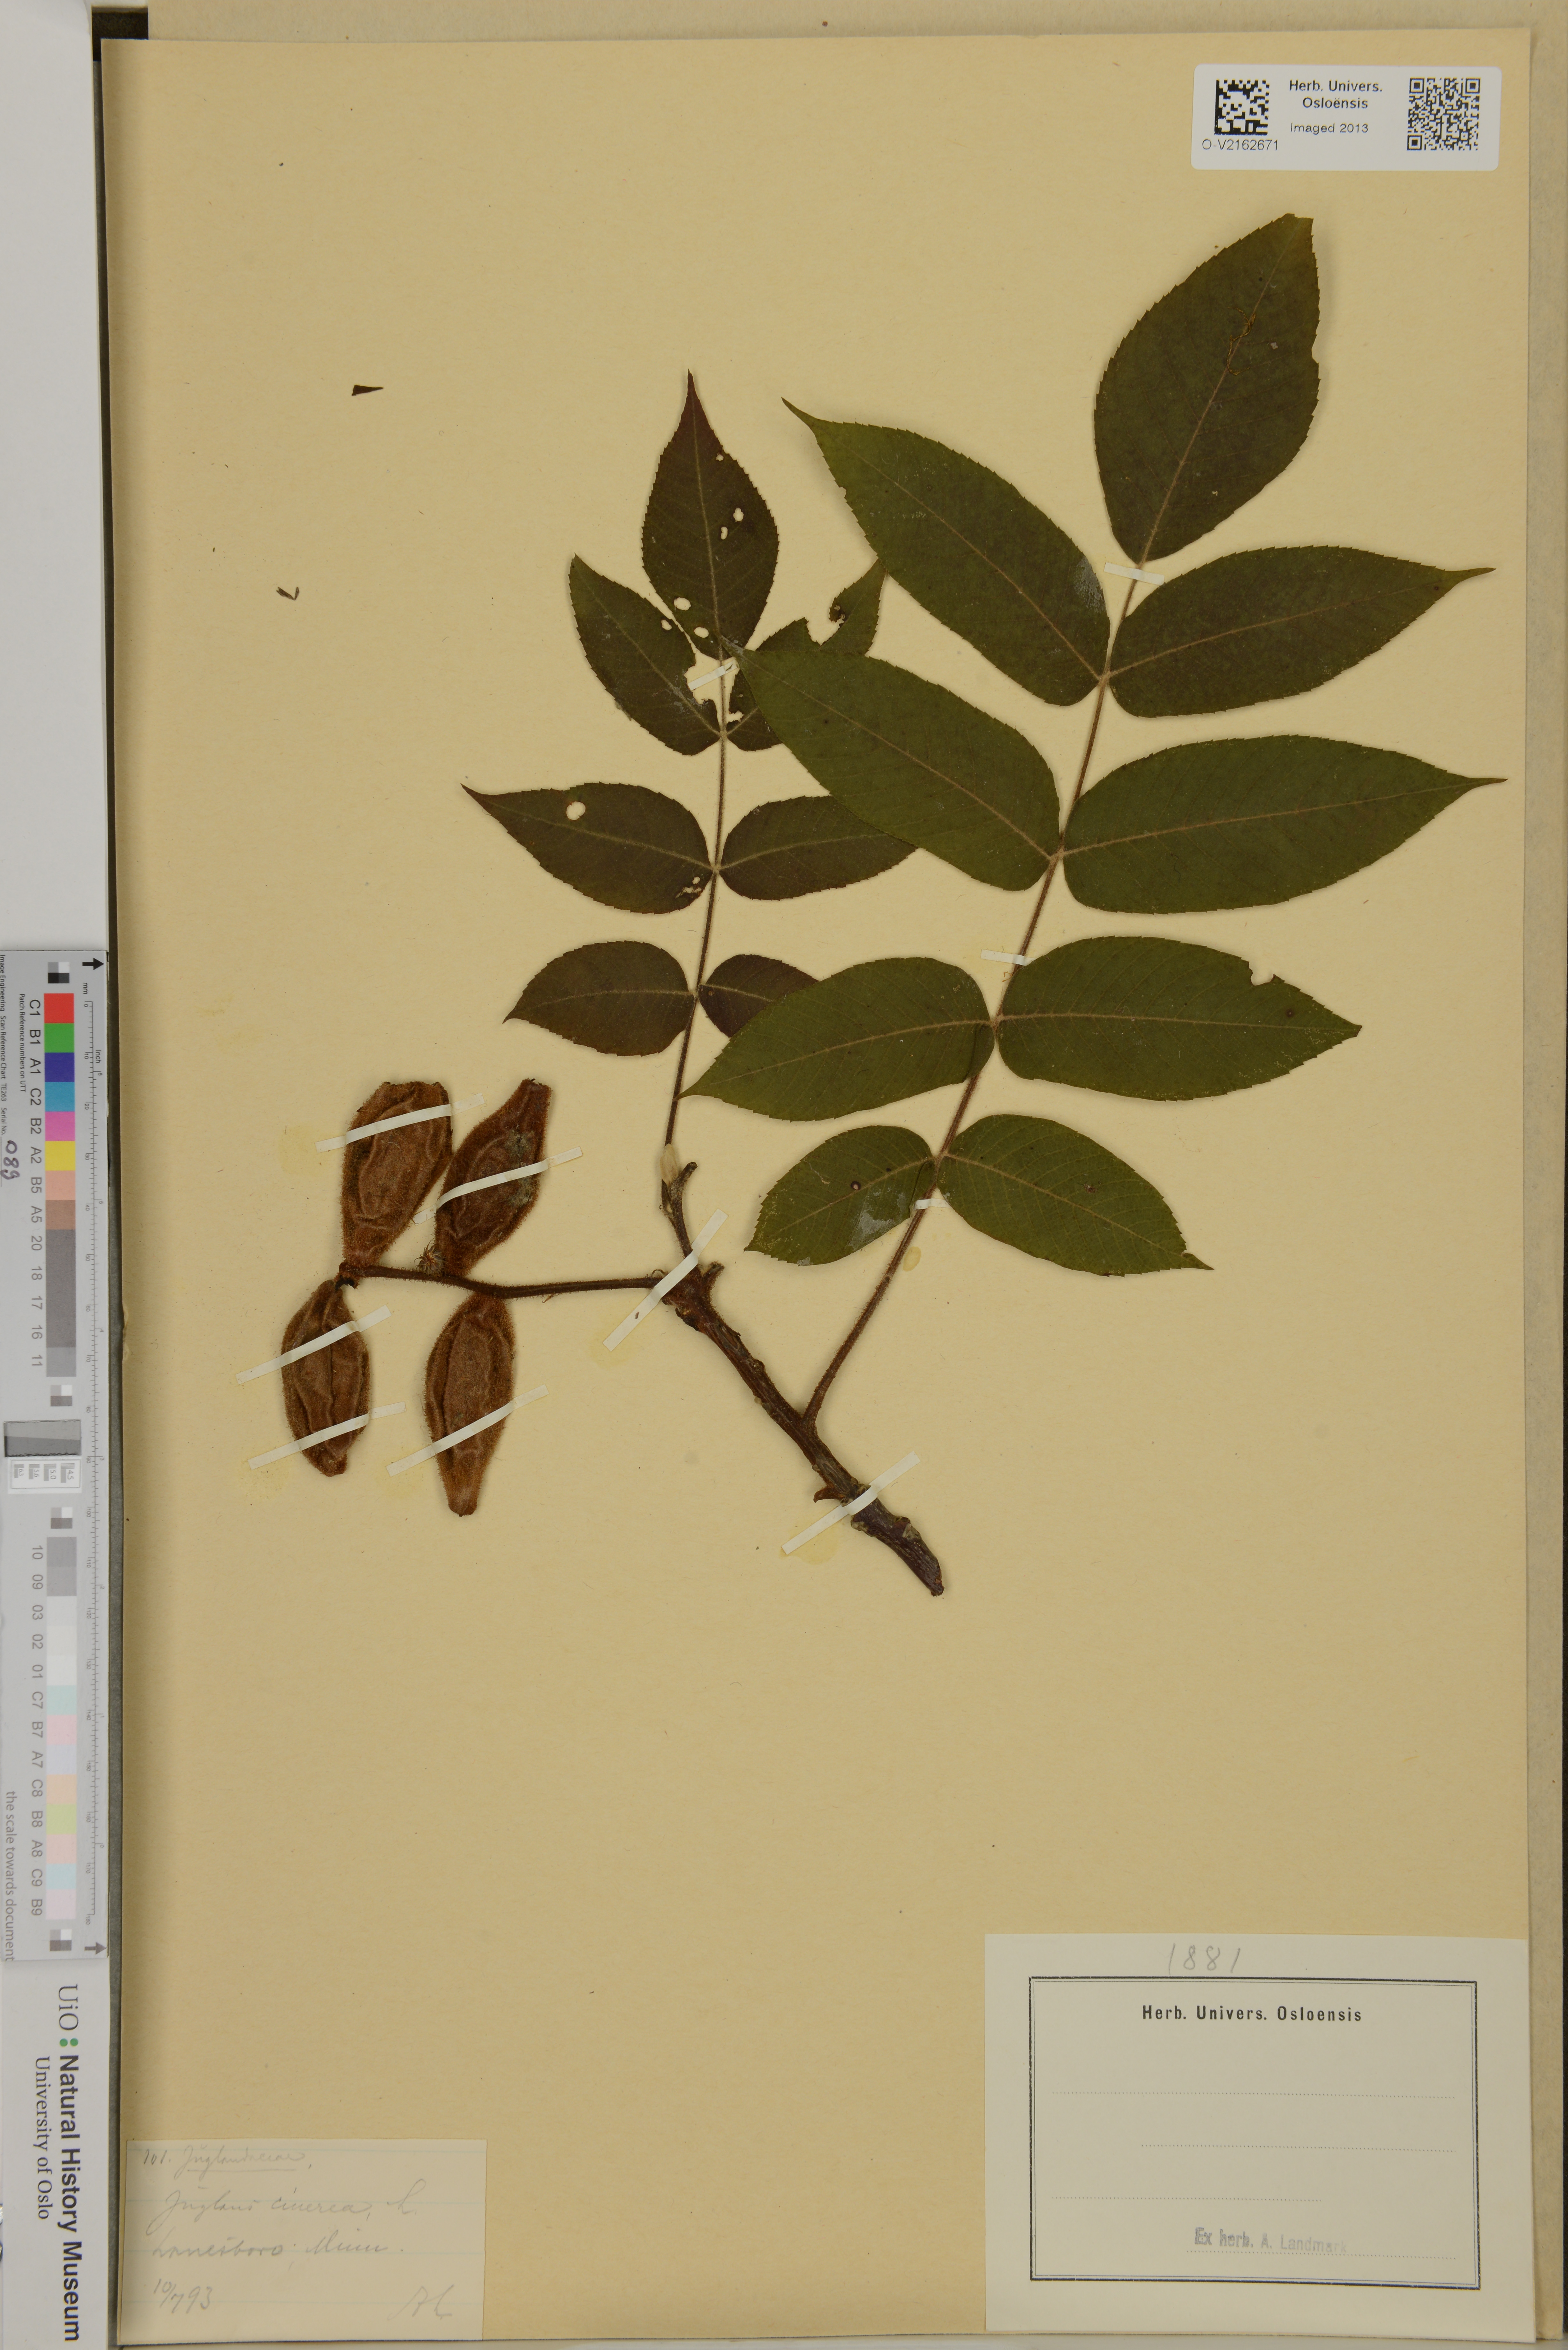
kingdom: Plantae
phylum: Tracheophyta
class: Magnoliopsida
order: Fagales
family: Juglandaceae
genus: Juglans
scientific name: Juglans cinerea
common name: Butternut
